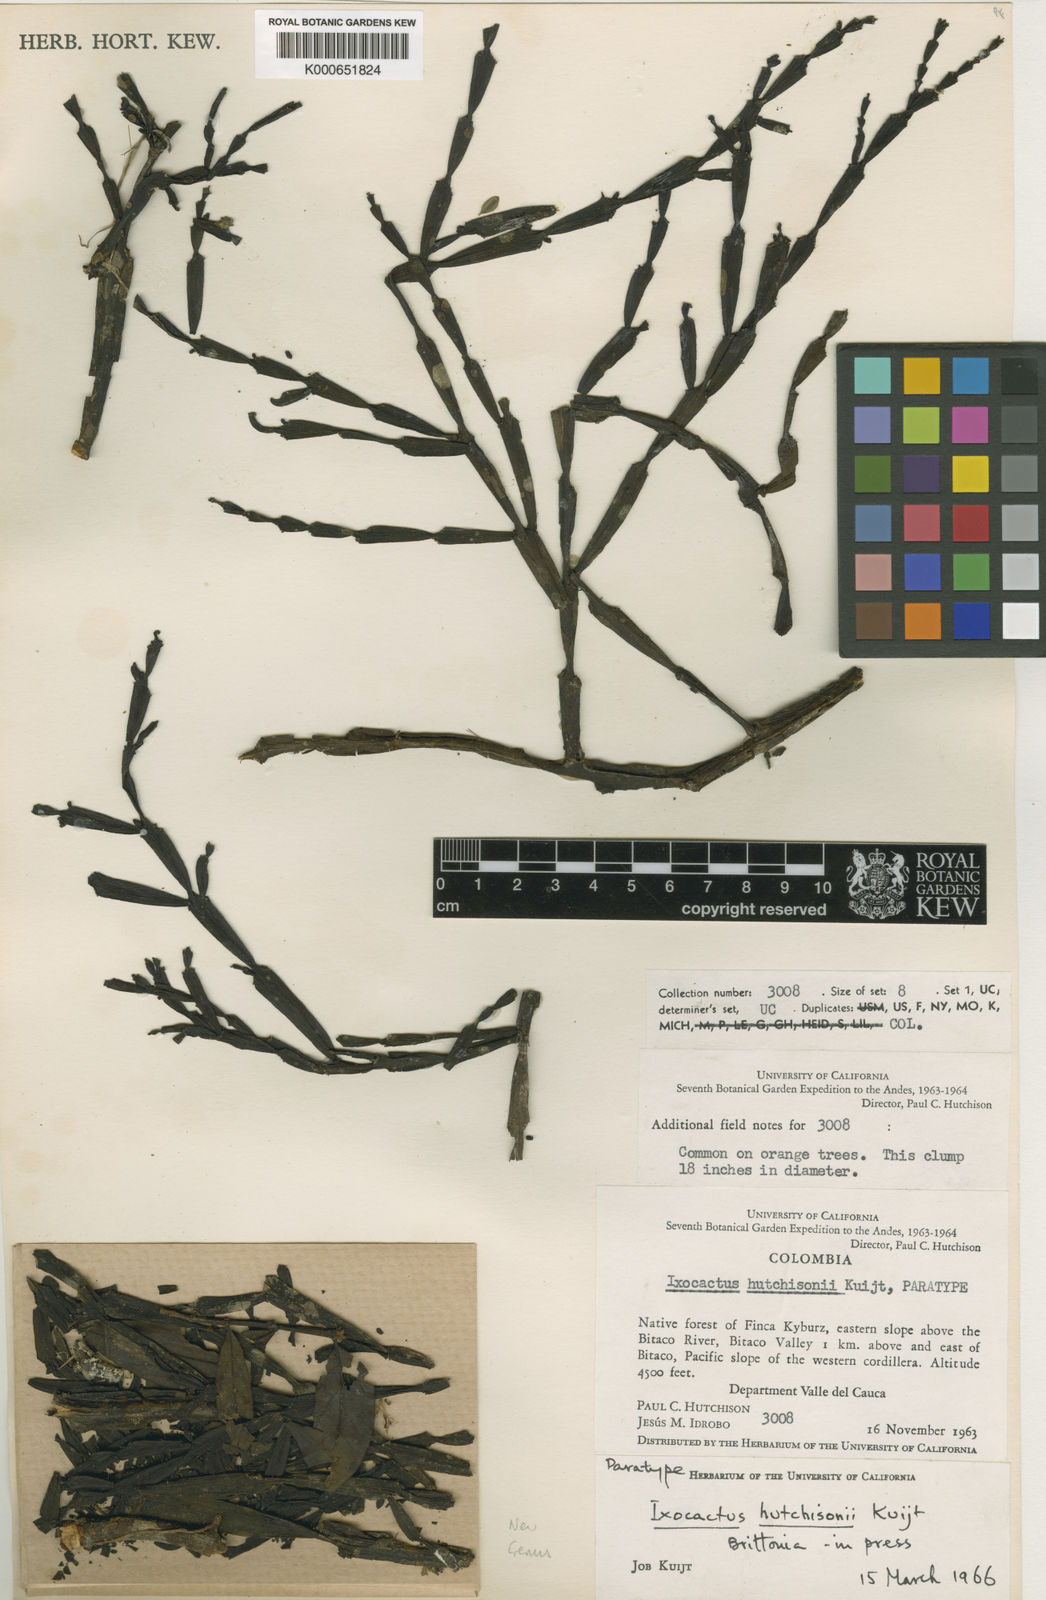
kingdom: Plantae
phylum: Tracheophyta
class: Magnoliopsida
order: Santalales
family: Loranthaceae
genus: Phthirusa
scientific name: Phthirusa
